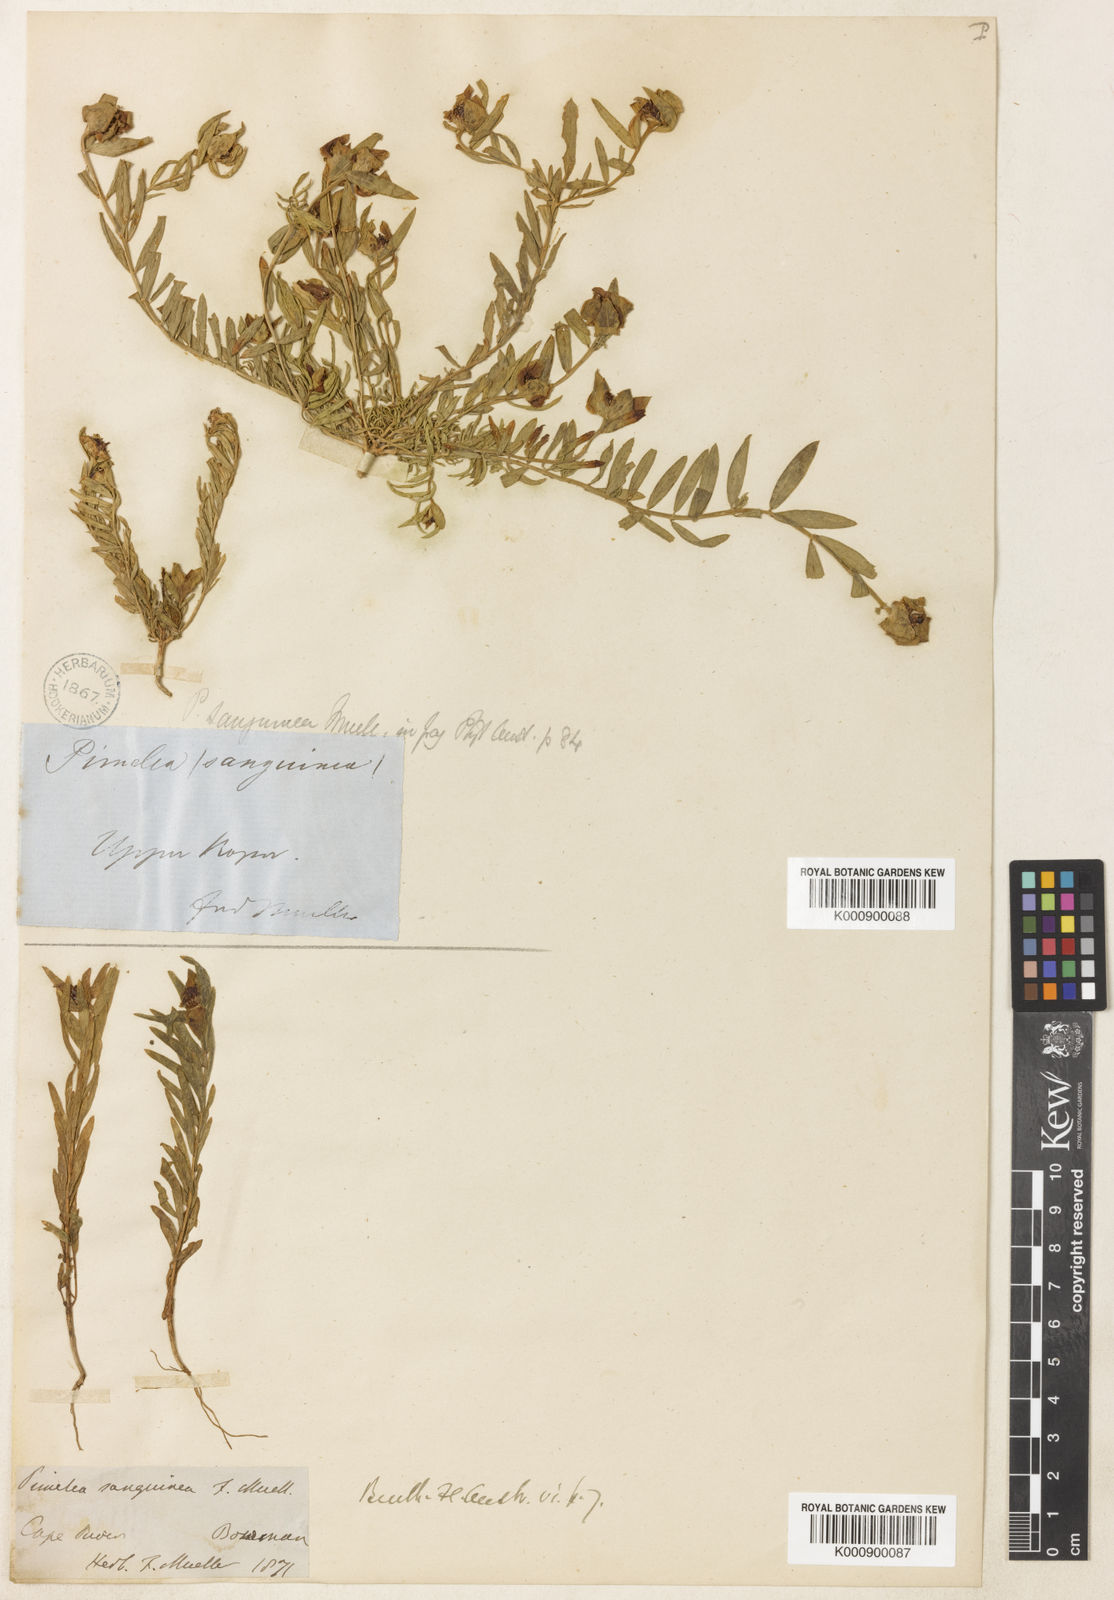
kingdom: Plantae
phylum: Tracheophyta
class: Magnoliopsida
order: Malvales
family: Thymelaeaceae
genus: Pimelea
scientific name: Pimelea sanguinea
